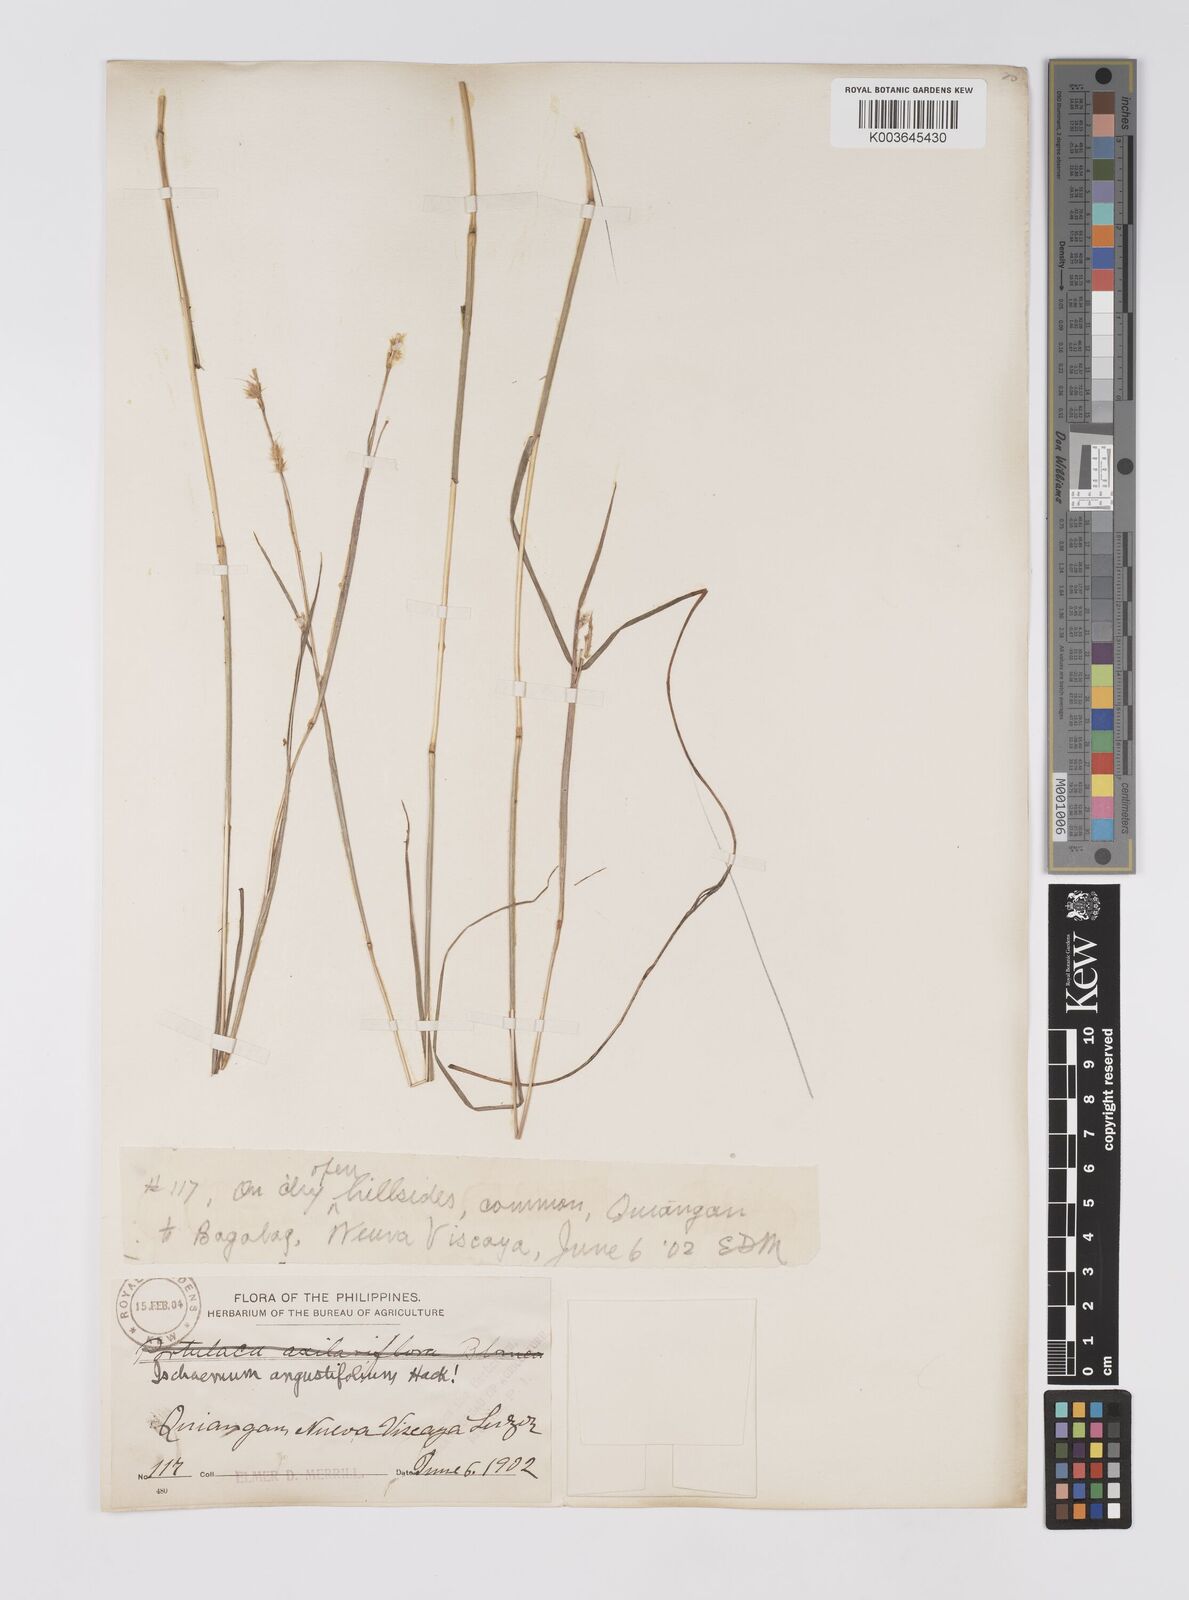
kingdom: Plantae
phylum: Tracheophyta
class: Liliopsida
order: Poales
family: Poaceae
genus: Eulaliopsis
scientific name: Eulaliopsis binata
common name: Baib grass
